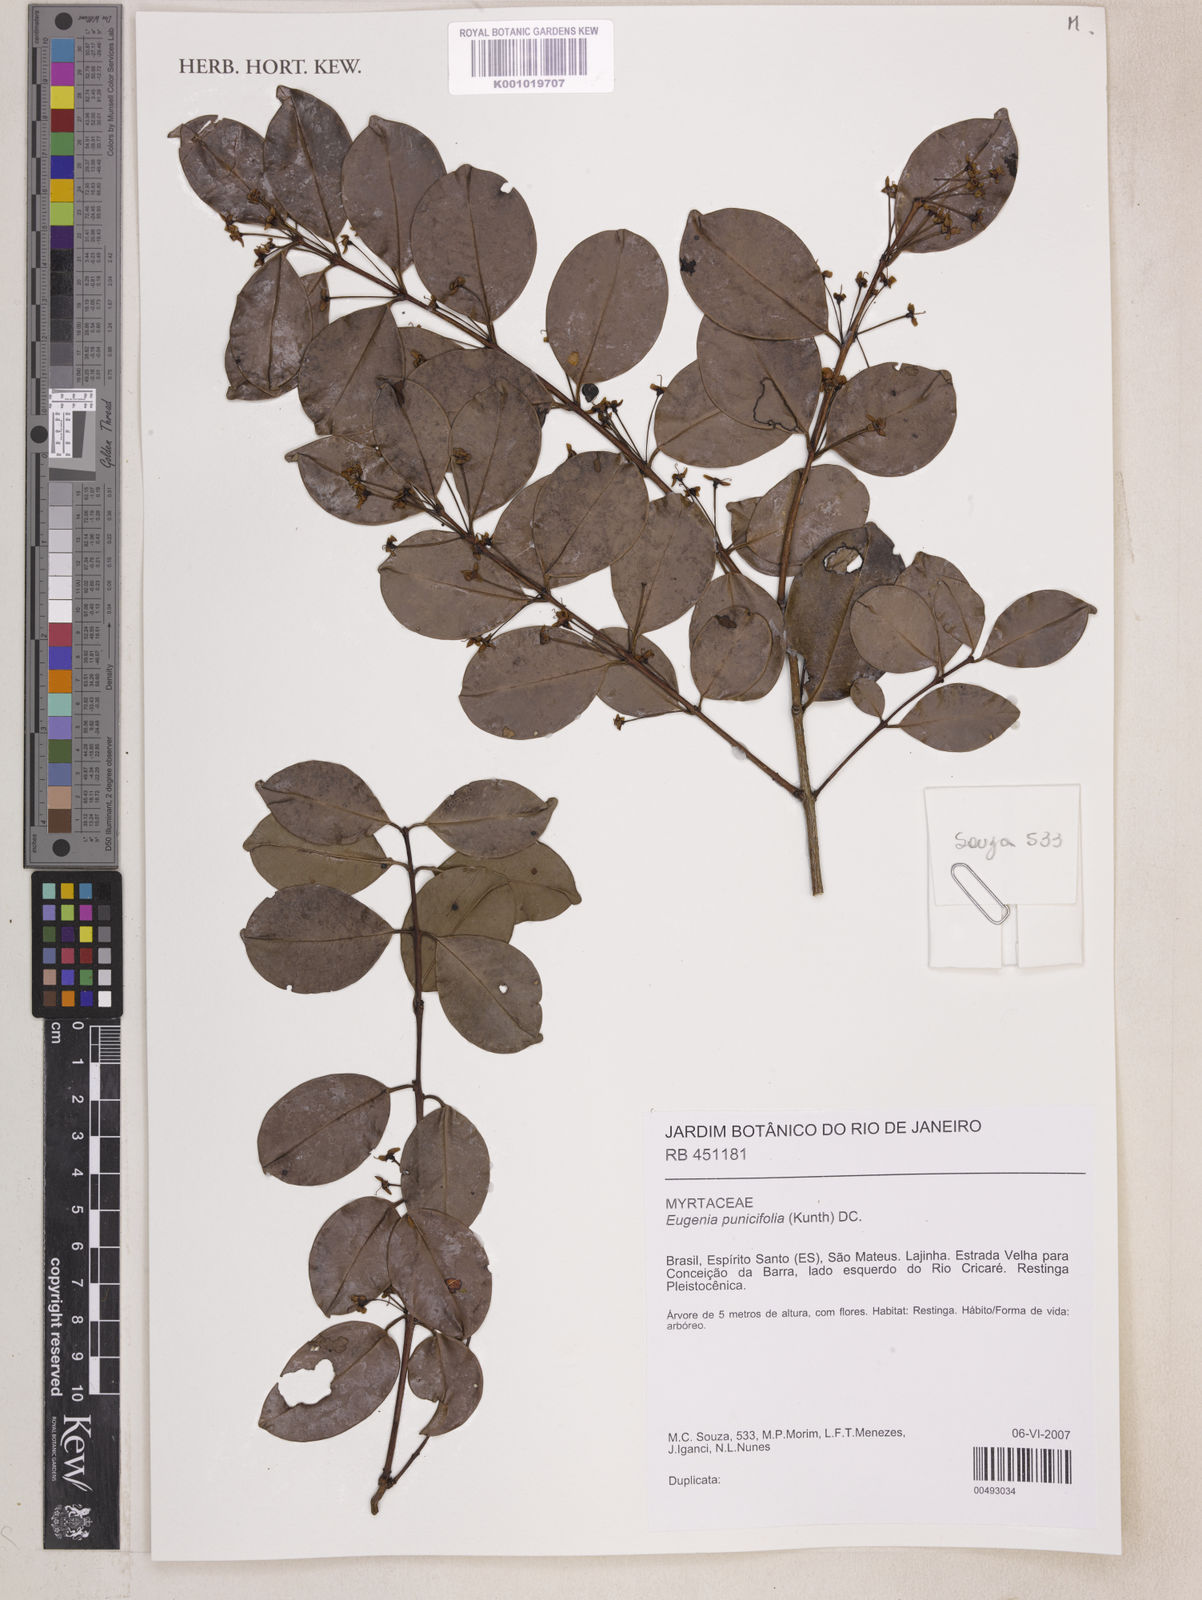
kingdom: Plantae
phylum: Tracheophyta
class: Magnoliopsida
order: Myrtales
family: Myrtaceae
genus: Eugenia
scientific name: Eugenia punicifolia
